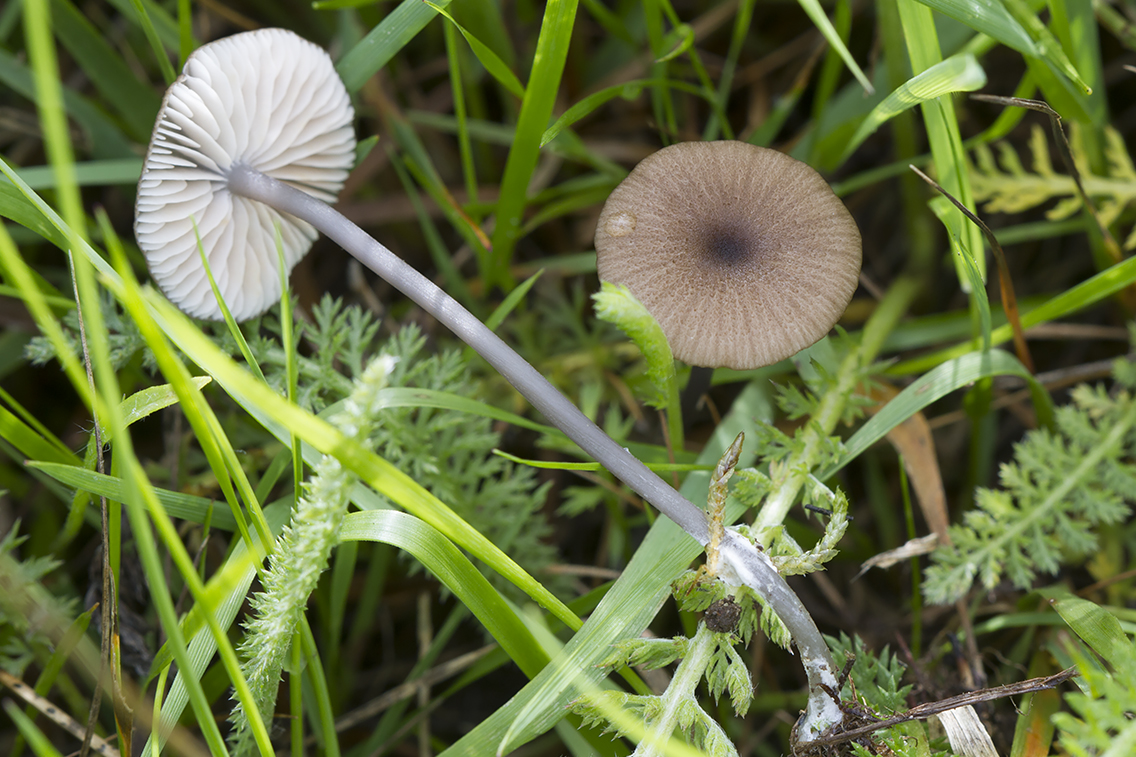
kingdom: Fungi
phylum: Basidiomycota
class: Agaricomycetes
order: Agaricales
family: Entolomataceae
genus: Entoloma
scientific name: Entoloma lividocyanulum
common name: mørkøjet rødblad
